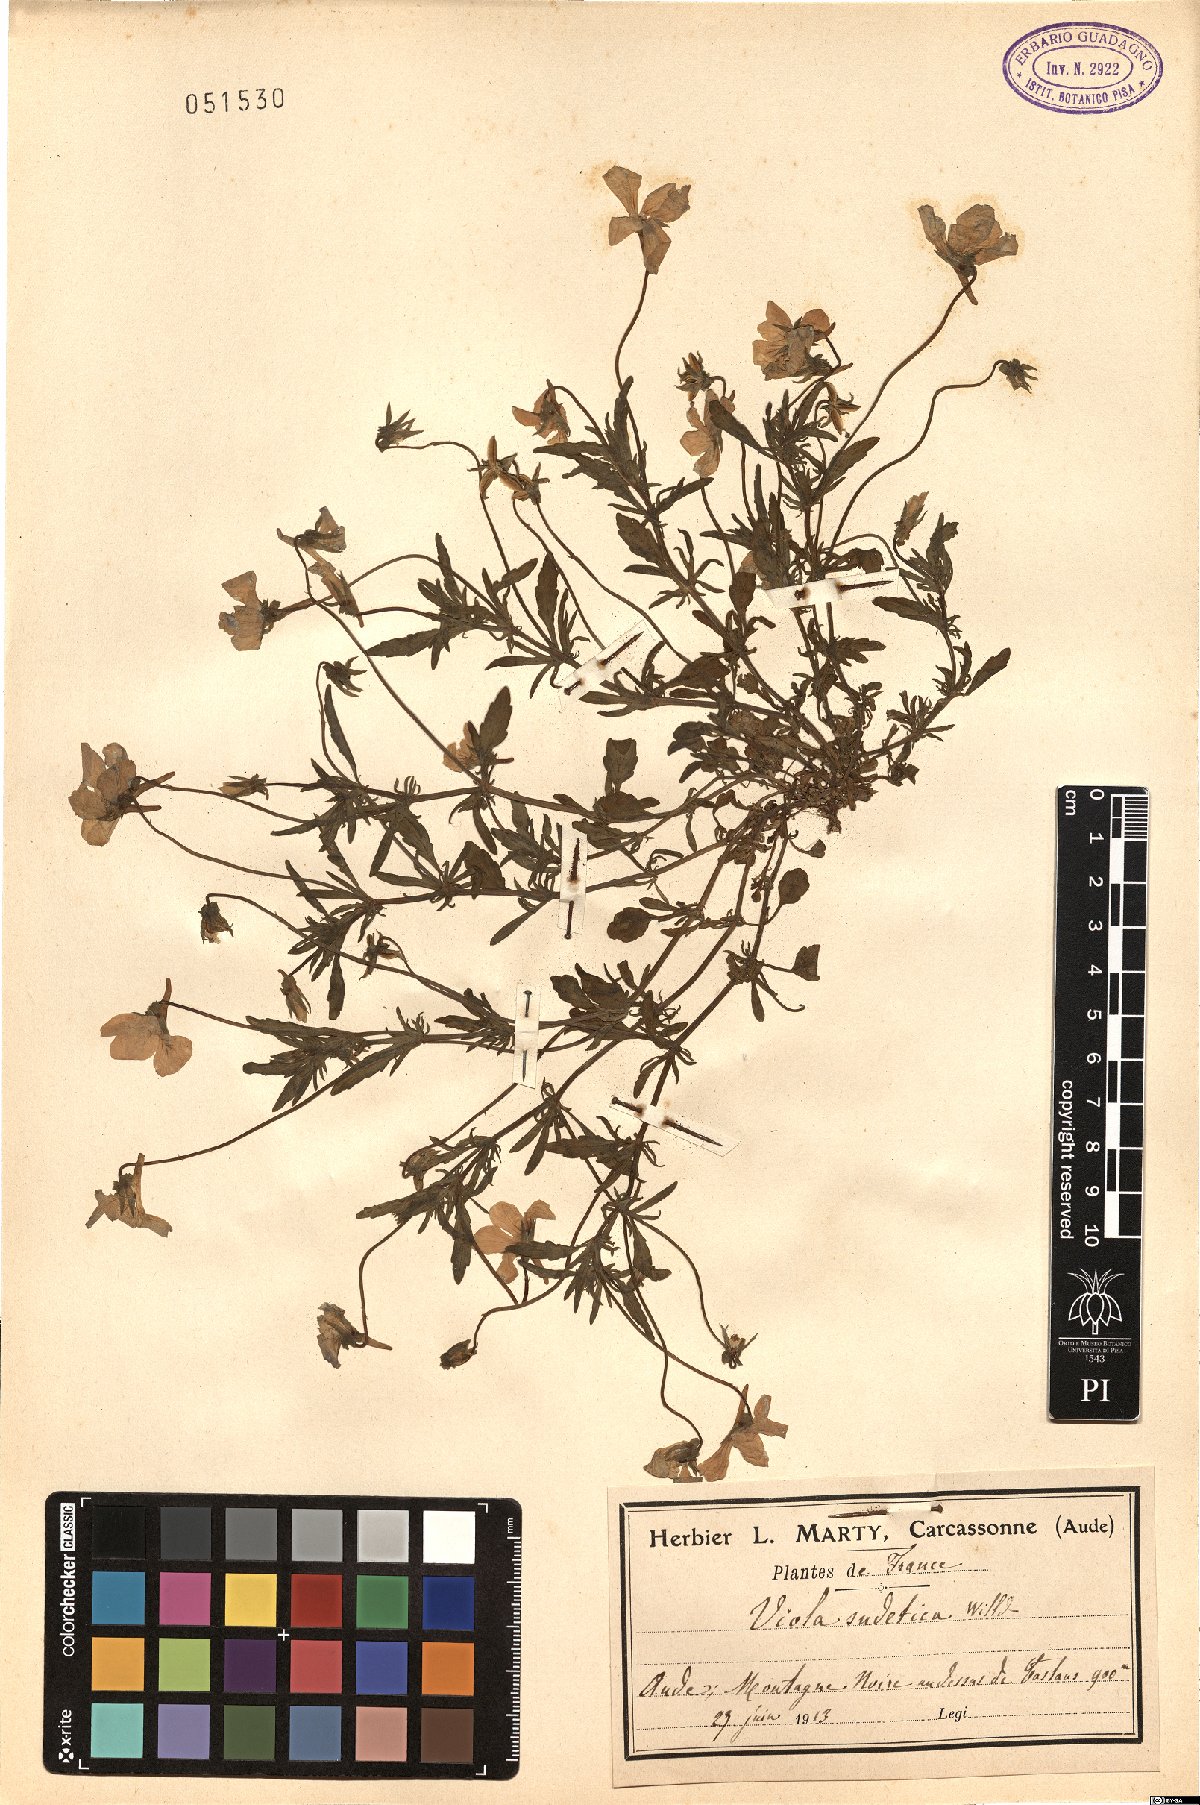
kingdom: Plantae
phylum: Tracheophyta
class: Magnoliopsida
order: Malpighiales
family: Violaceae
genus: Viola
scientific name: Viola lutea
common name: Mountain pansy
